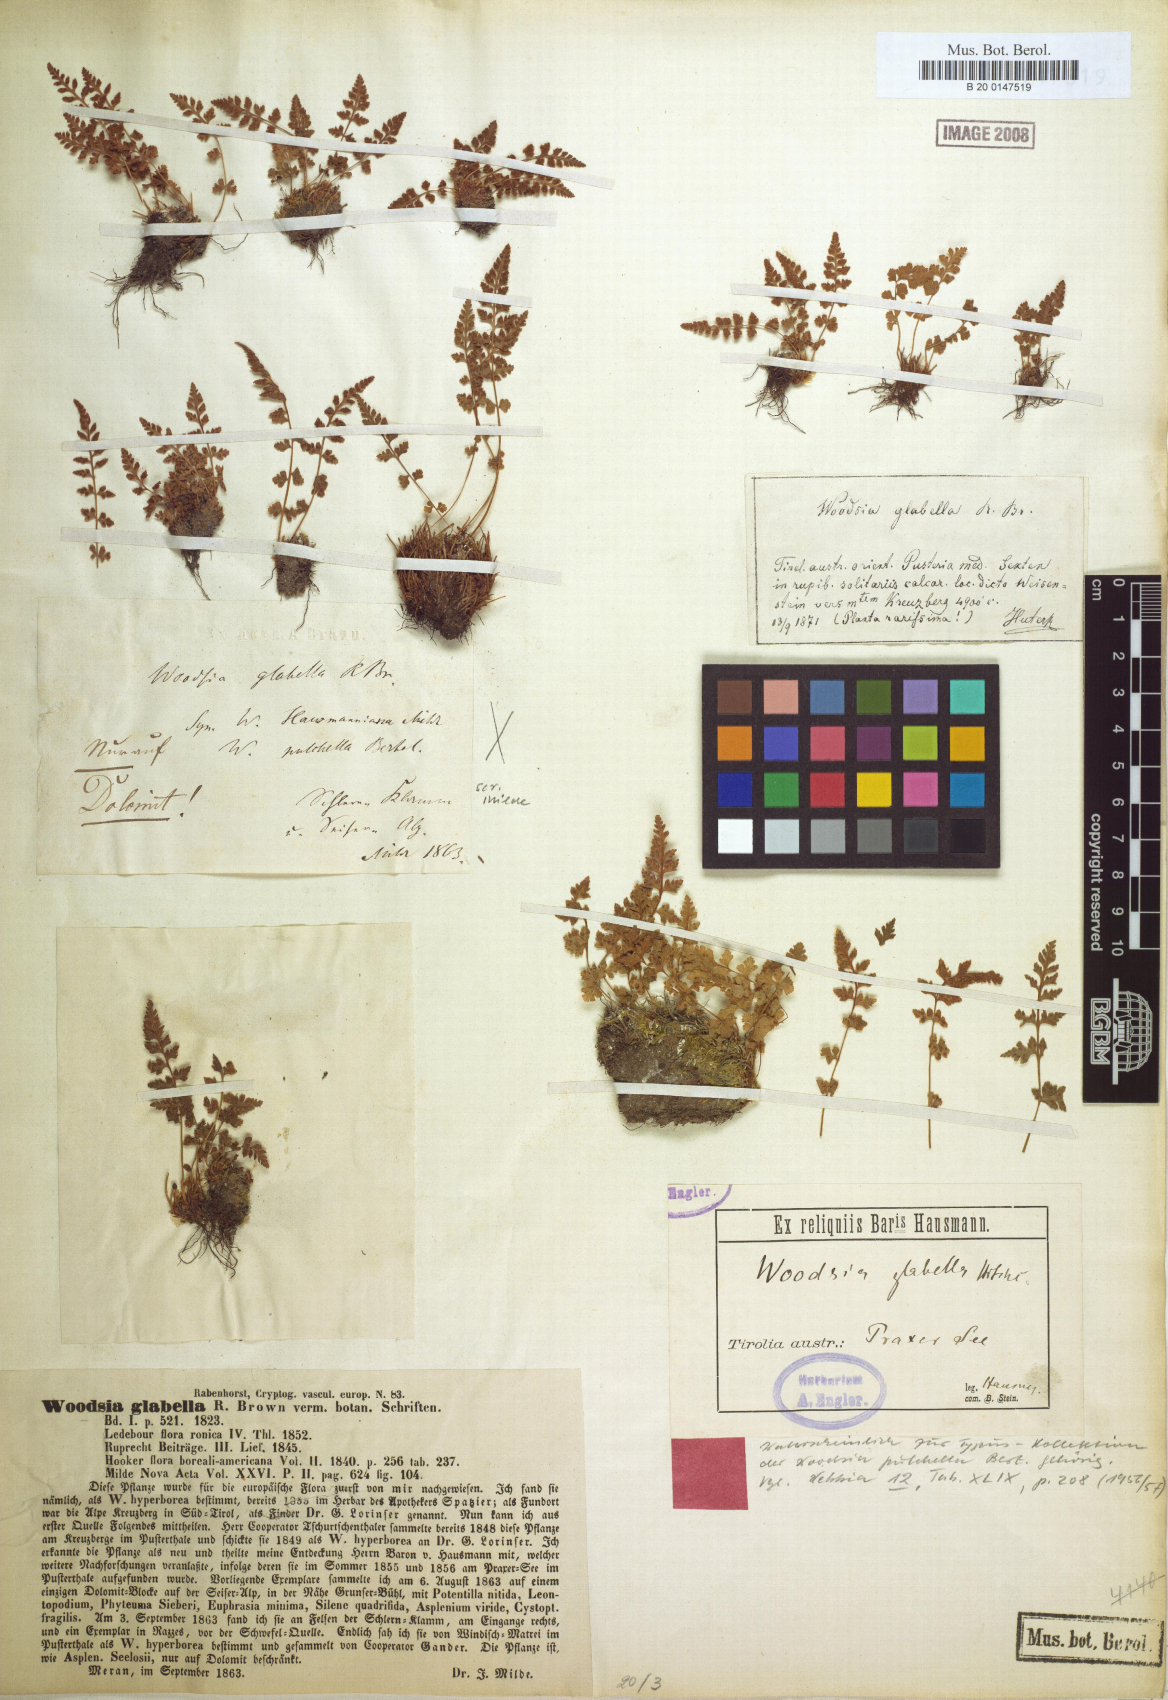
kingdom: Plantae
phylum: Tracheophyta
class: Polypodiopsida
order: Polypodiales
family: Woodsiaceae
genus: Woodsia
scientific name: Woodsia pulchella
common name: Graceful woodsia
